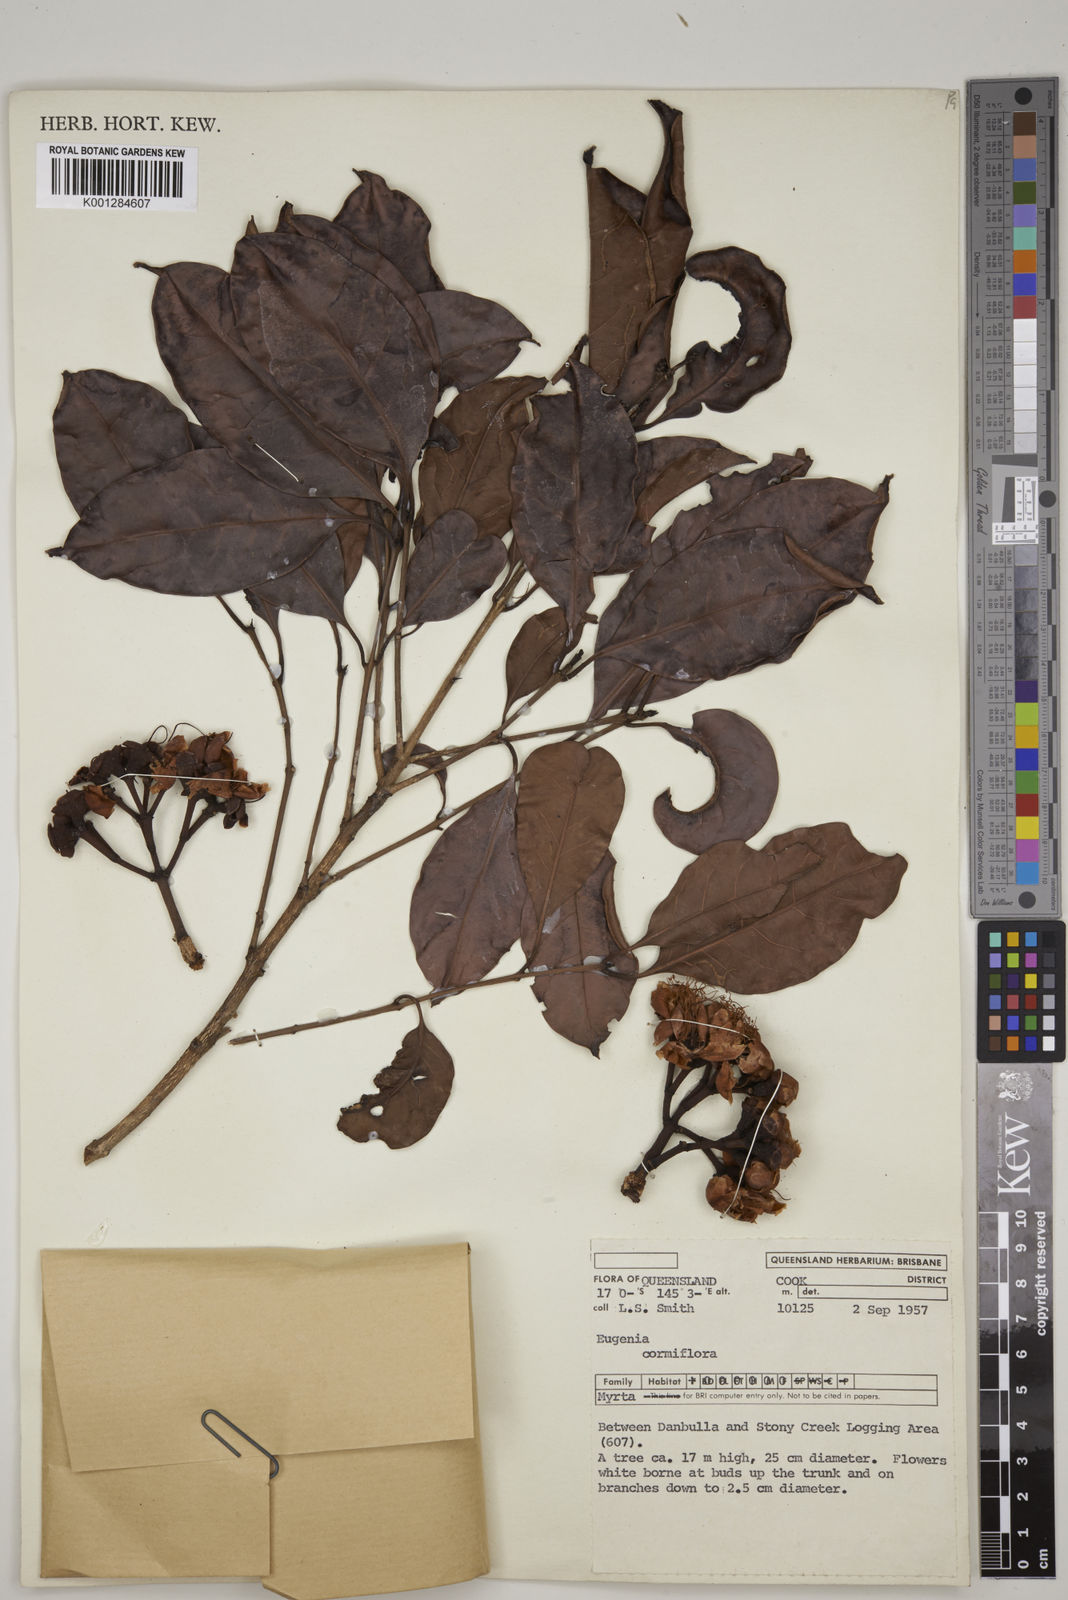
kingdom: Plantae
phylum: Tracheophyta
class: Magnoliopsida
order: Myrtales
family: Myrtaceae
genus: Syzygium
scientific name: Syzygium cormiflorum
